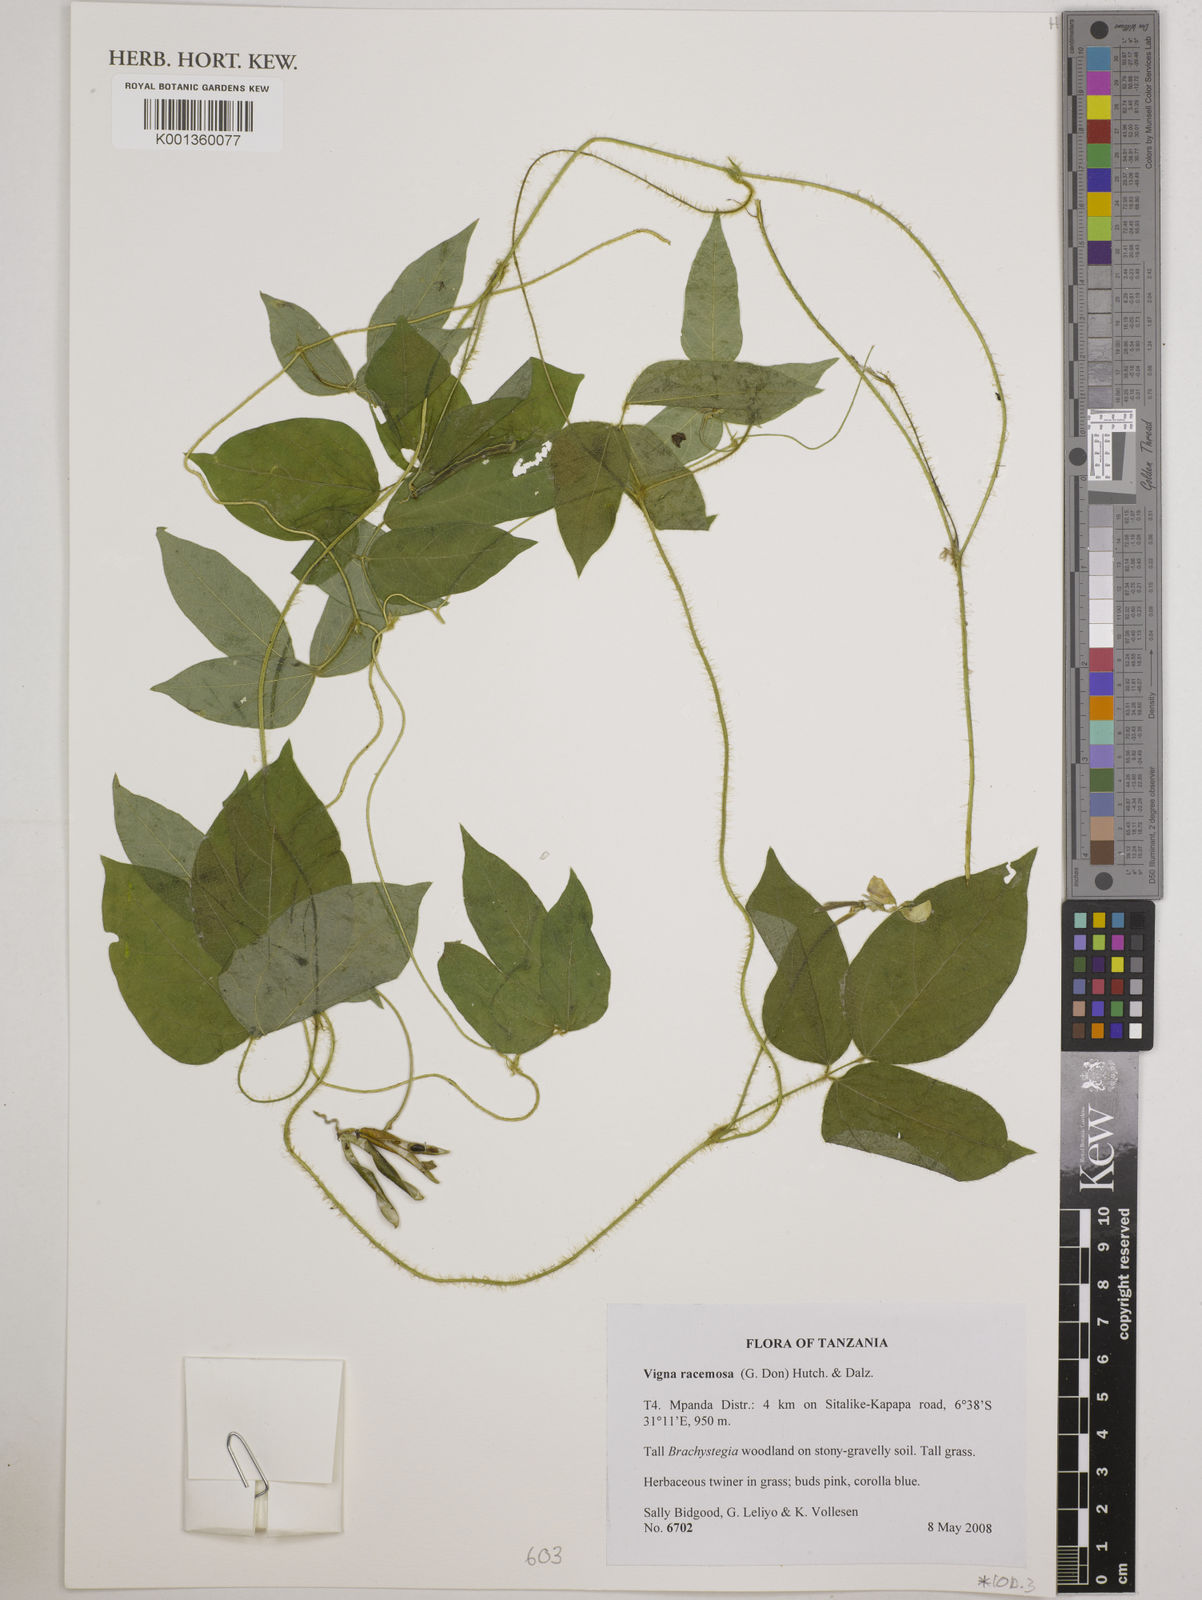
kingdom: Plantae
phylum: Tracheophyta
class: Magnoliopsida
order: Fabales
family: Fabaceae
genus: Vigna
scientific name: Vigna racemosa
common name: Beans not eaten
